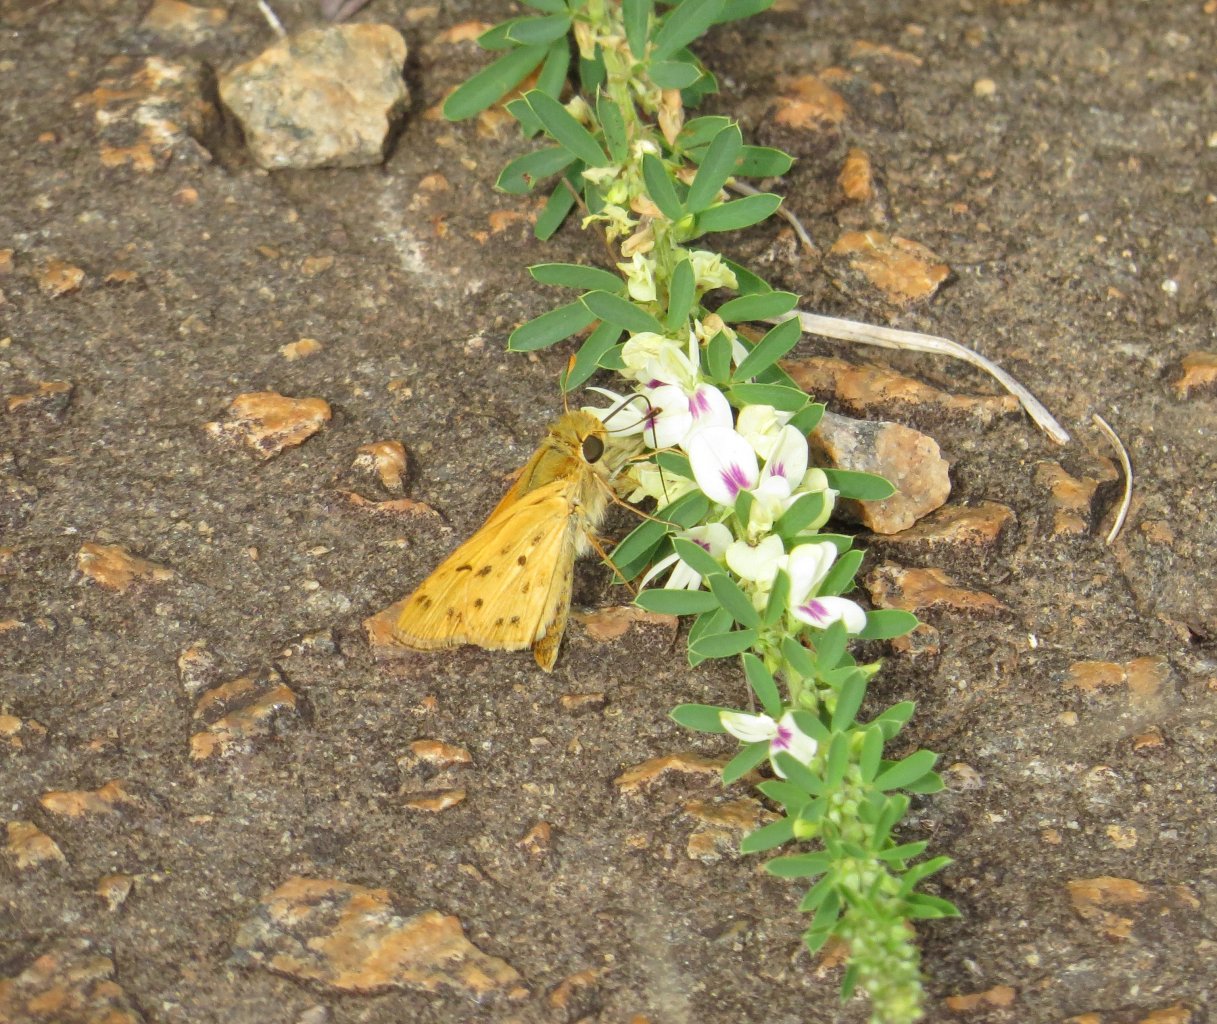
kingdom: Animalia
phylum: Arthropoda
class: Insecta
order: Lepidoptera
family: Hesperiidae
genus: Hylephila
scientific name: Hylephila phyleus
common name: Fiery Skipper
